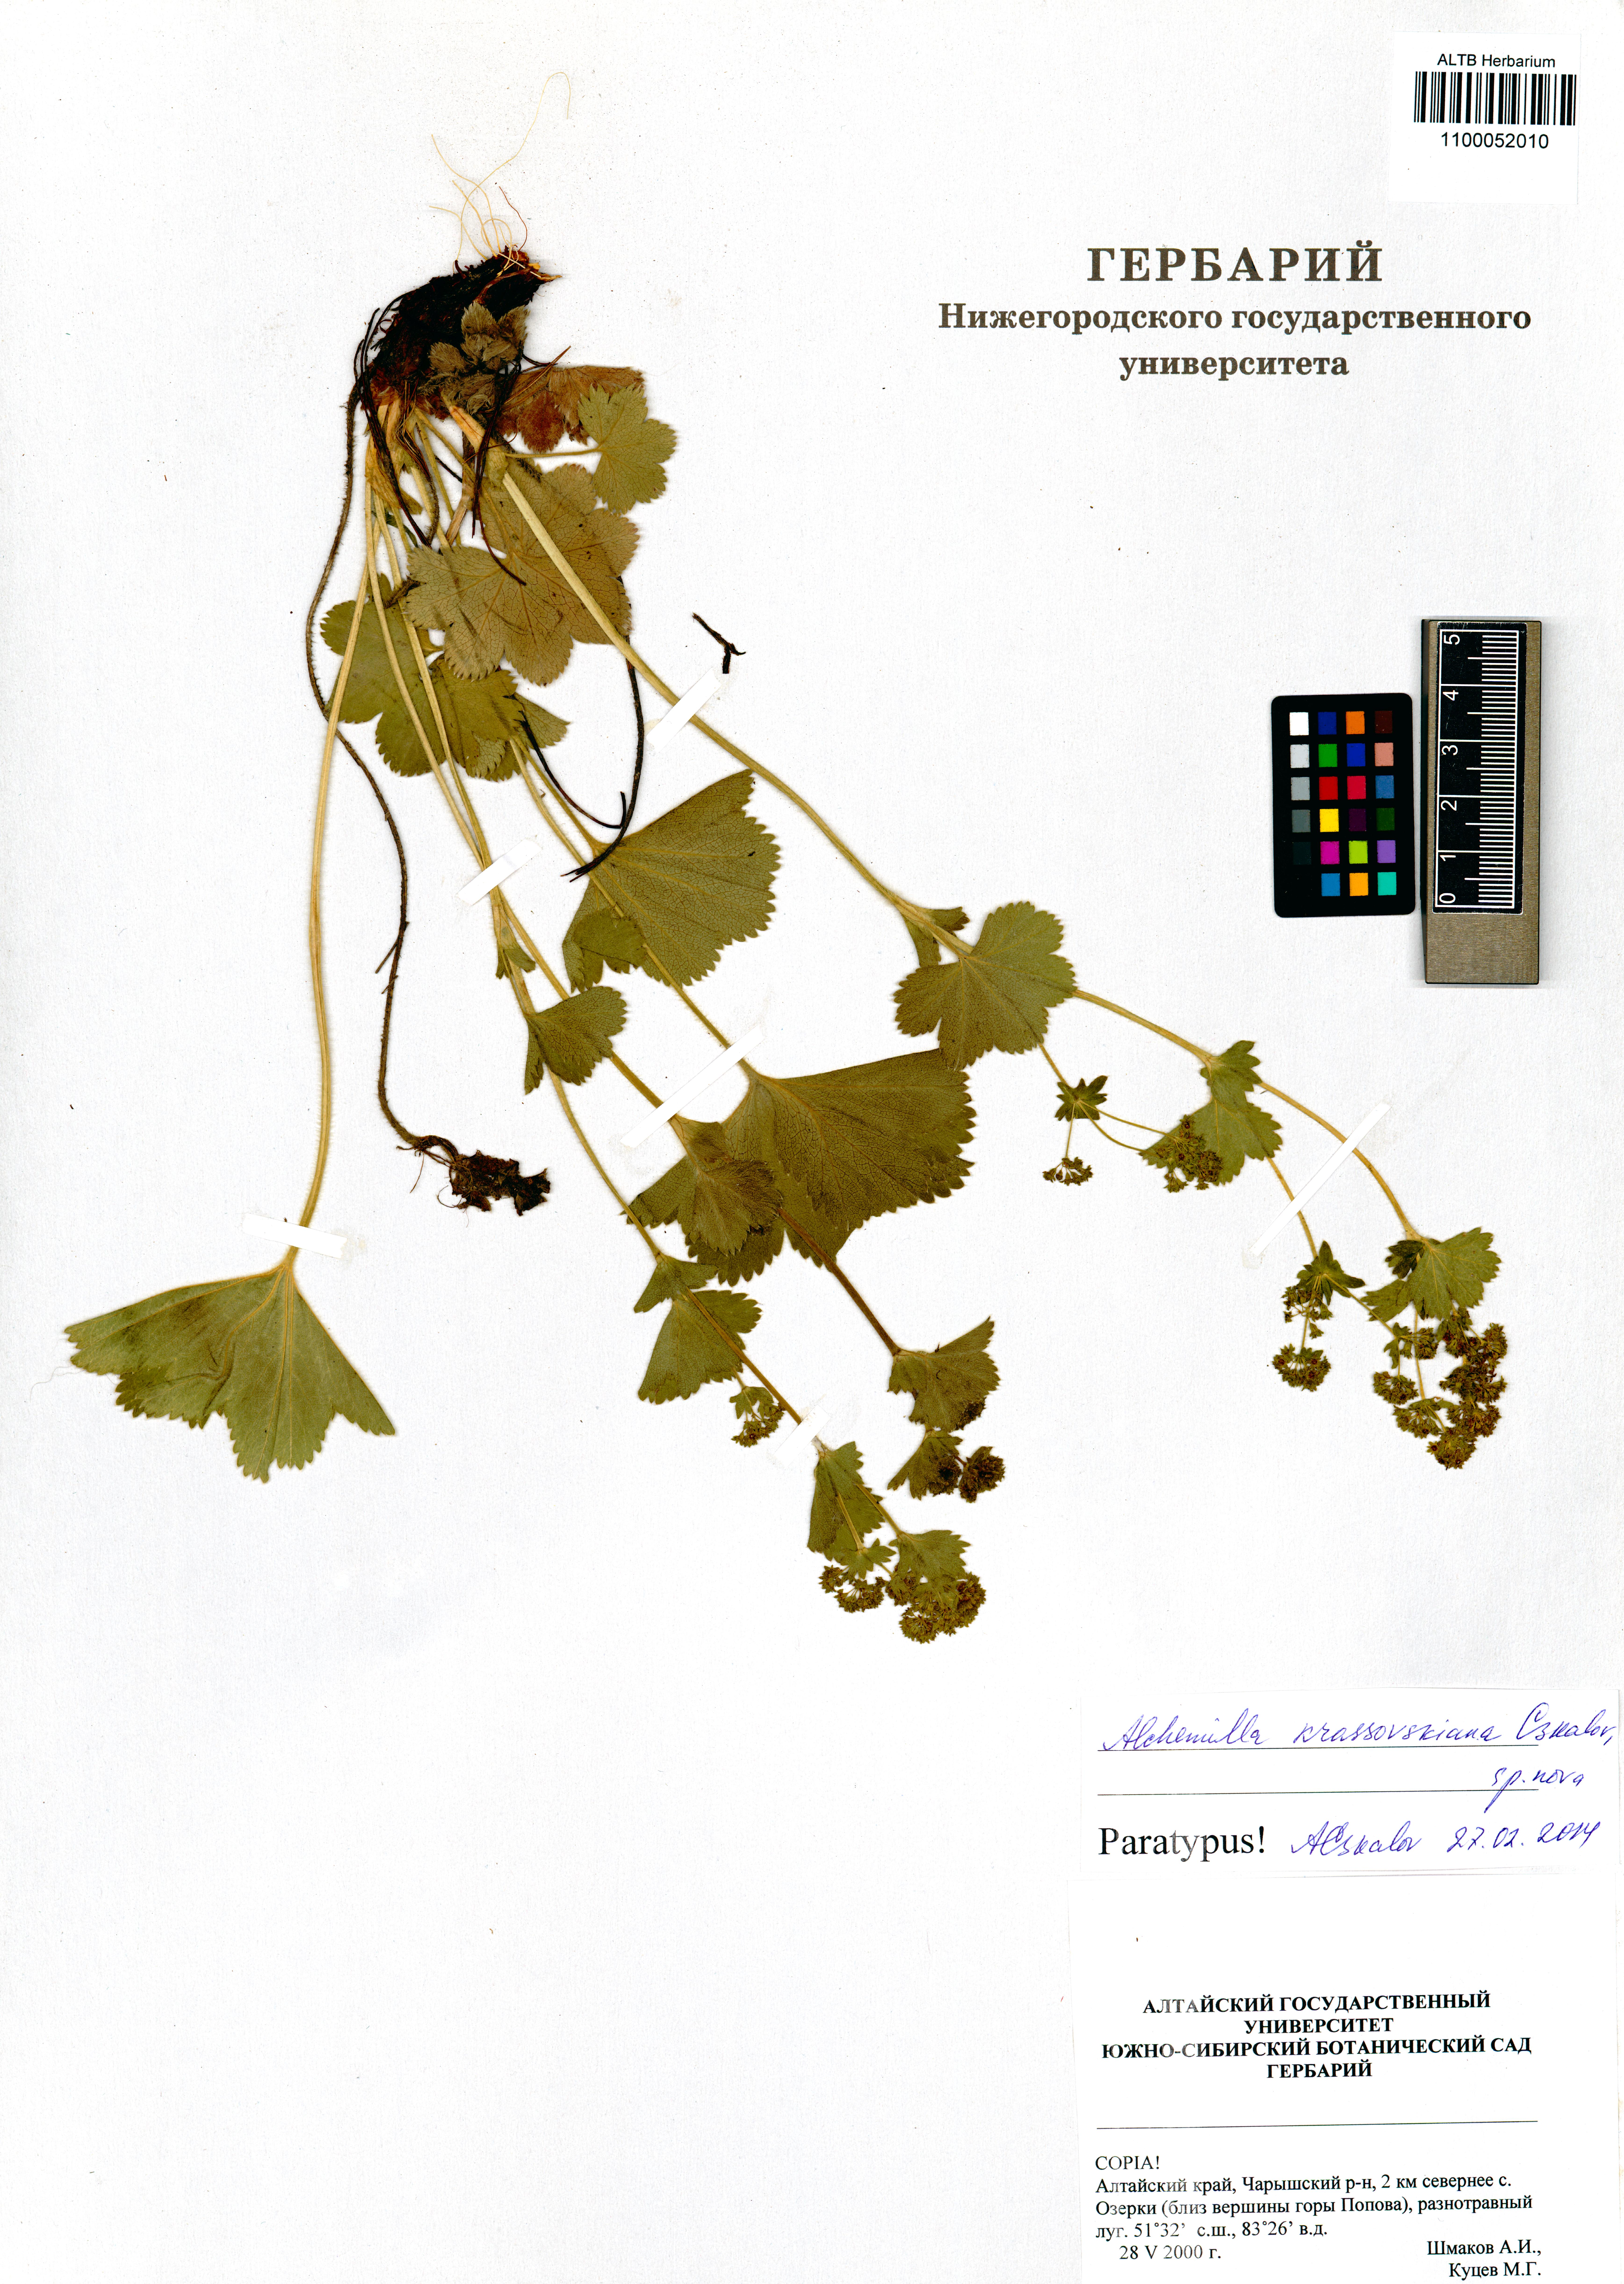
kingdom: Plantae
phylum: Tracheophyta
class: Magnoliopsida
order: Rosales
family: Rosaceae
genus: Alchemilla
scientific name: Alchemilla krassovskiana
